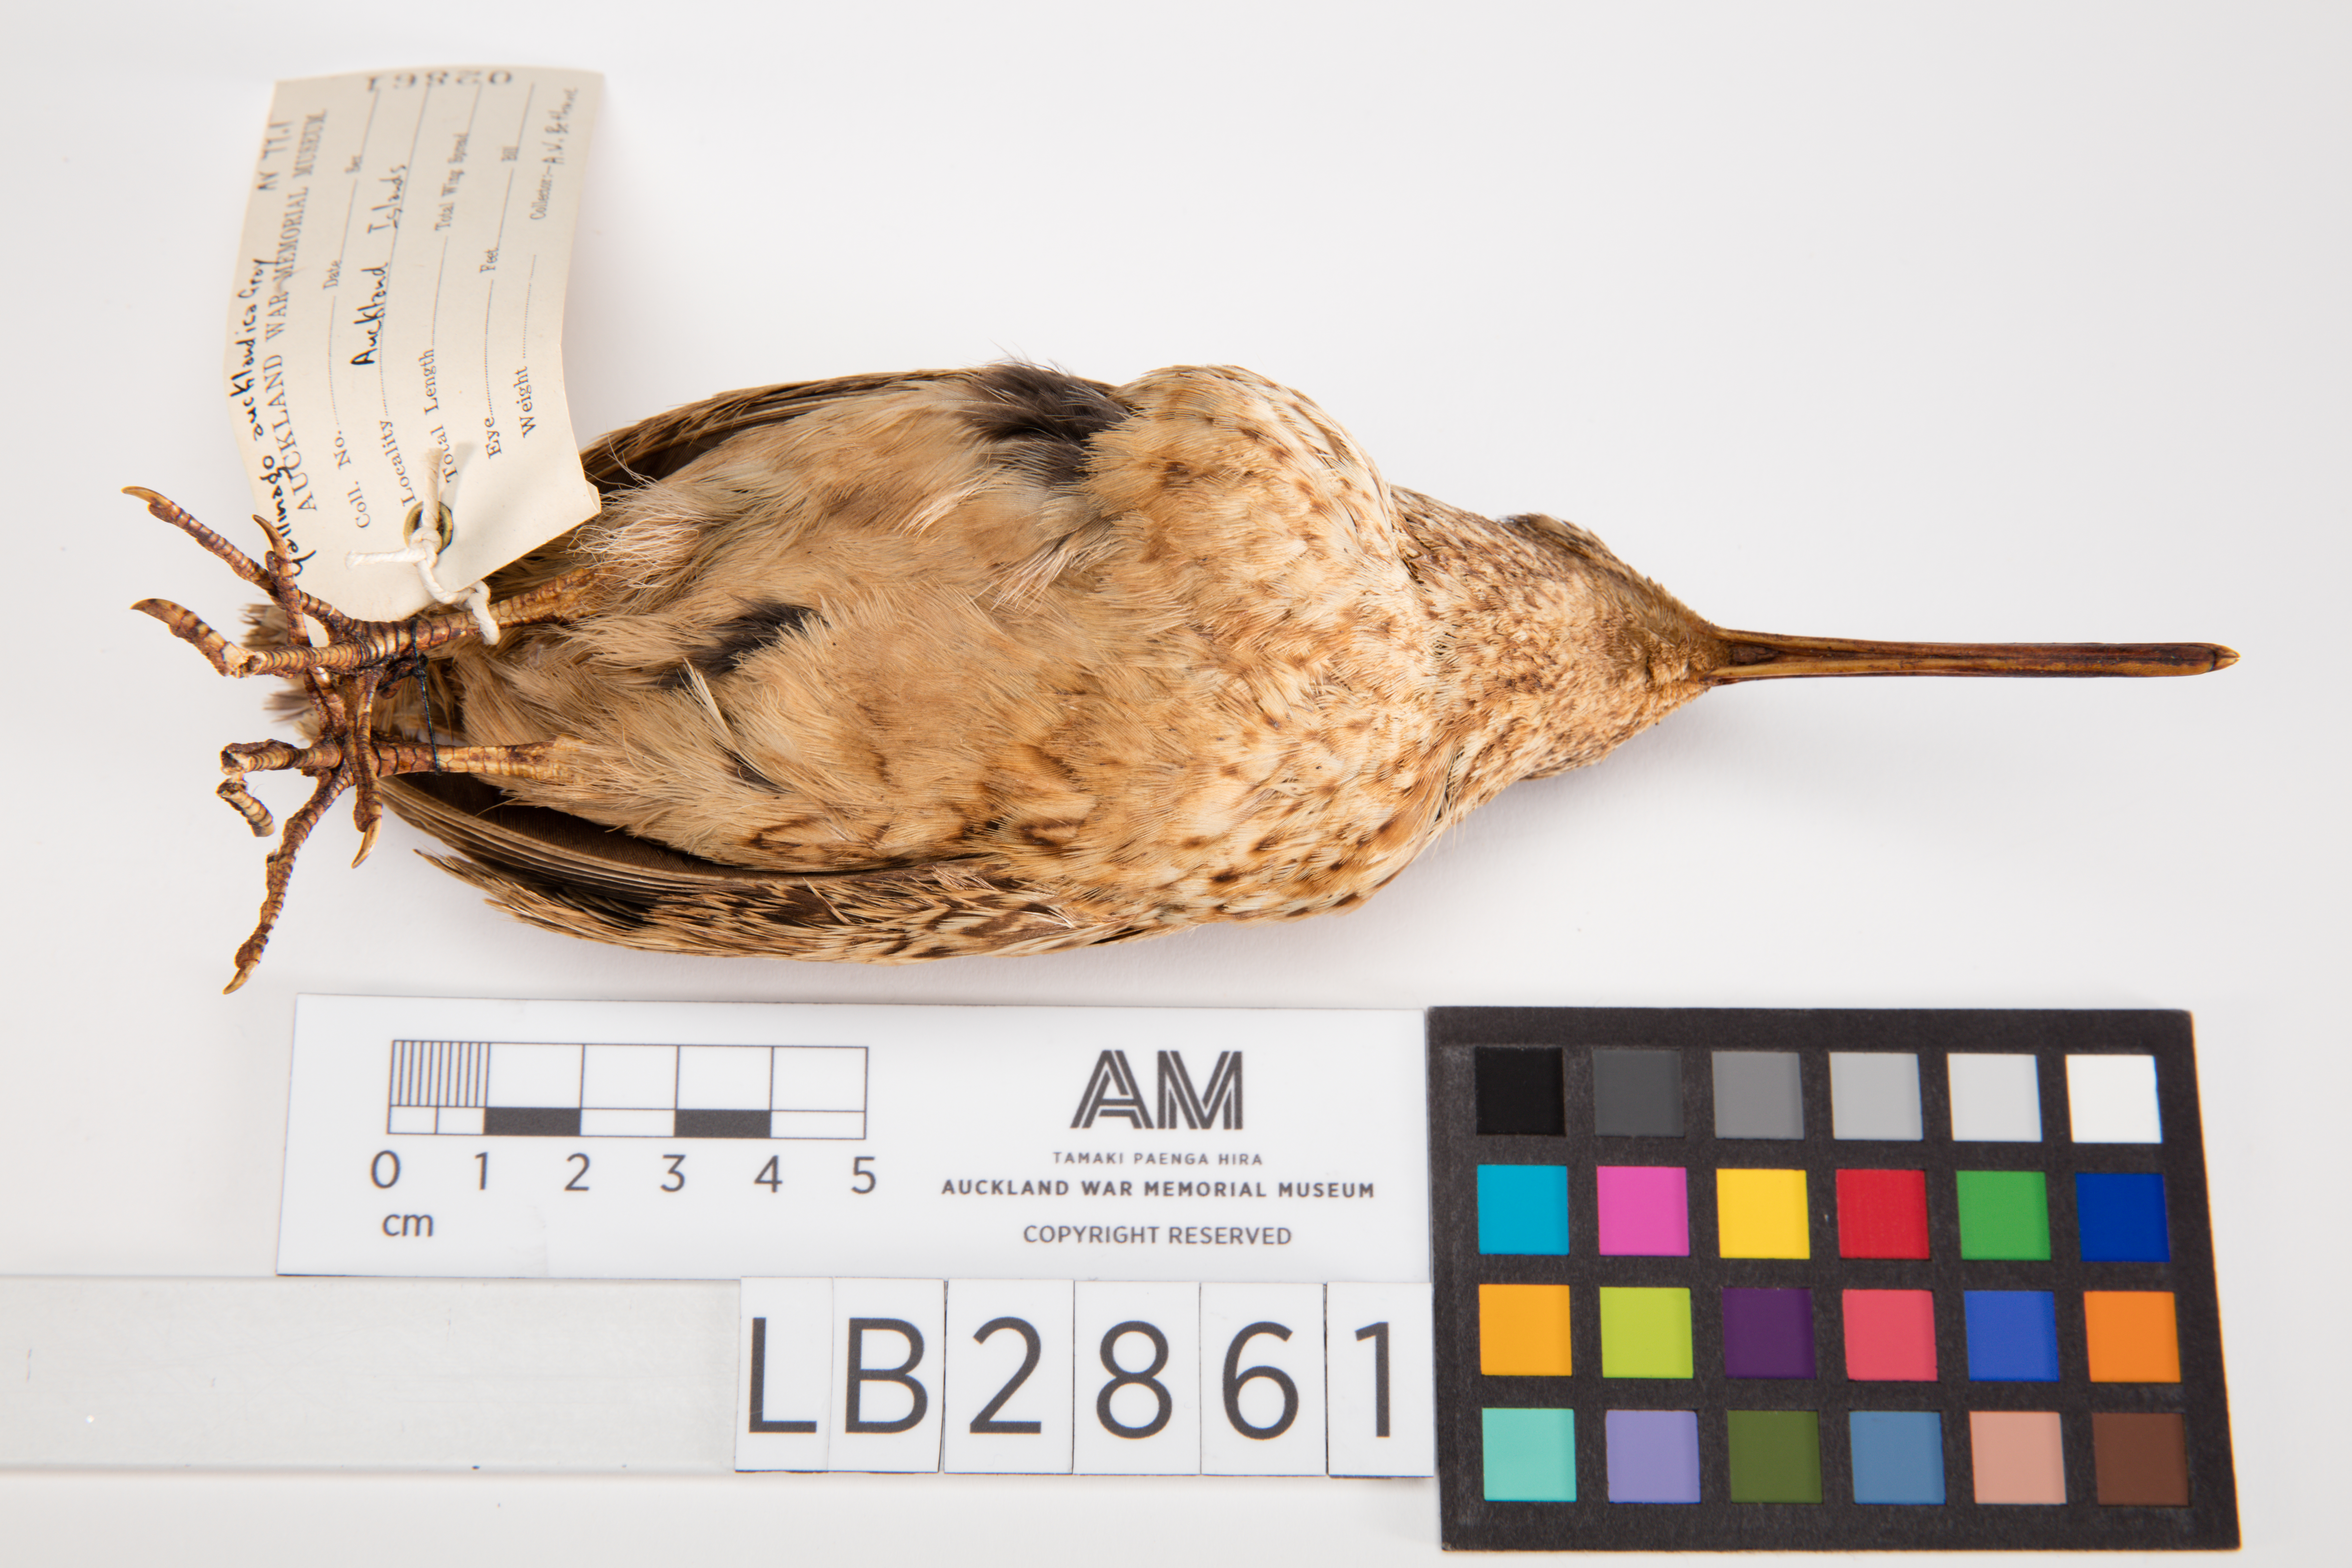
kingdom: Animalia
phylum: Chordata
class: Aves
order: Charadriiformes
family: Scolopacidae
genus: Coenocorypha
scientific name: Coenocorypha aucklandica
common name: Subantarctic snipe
